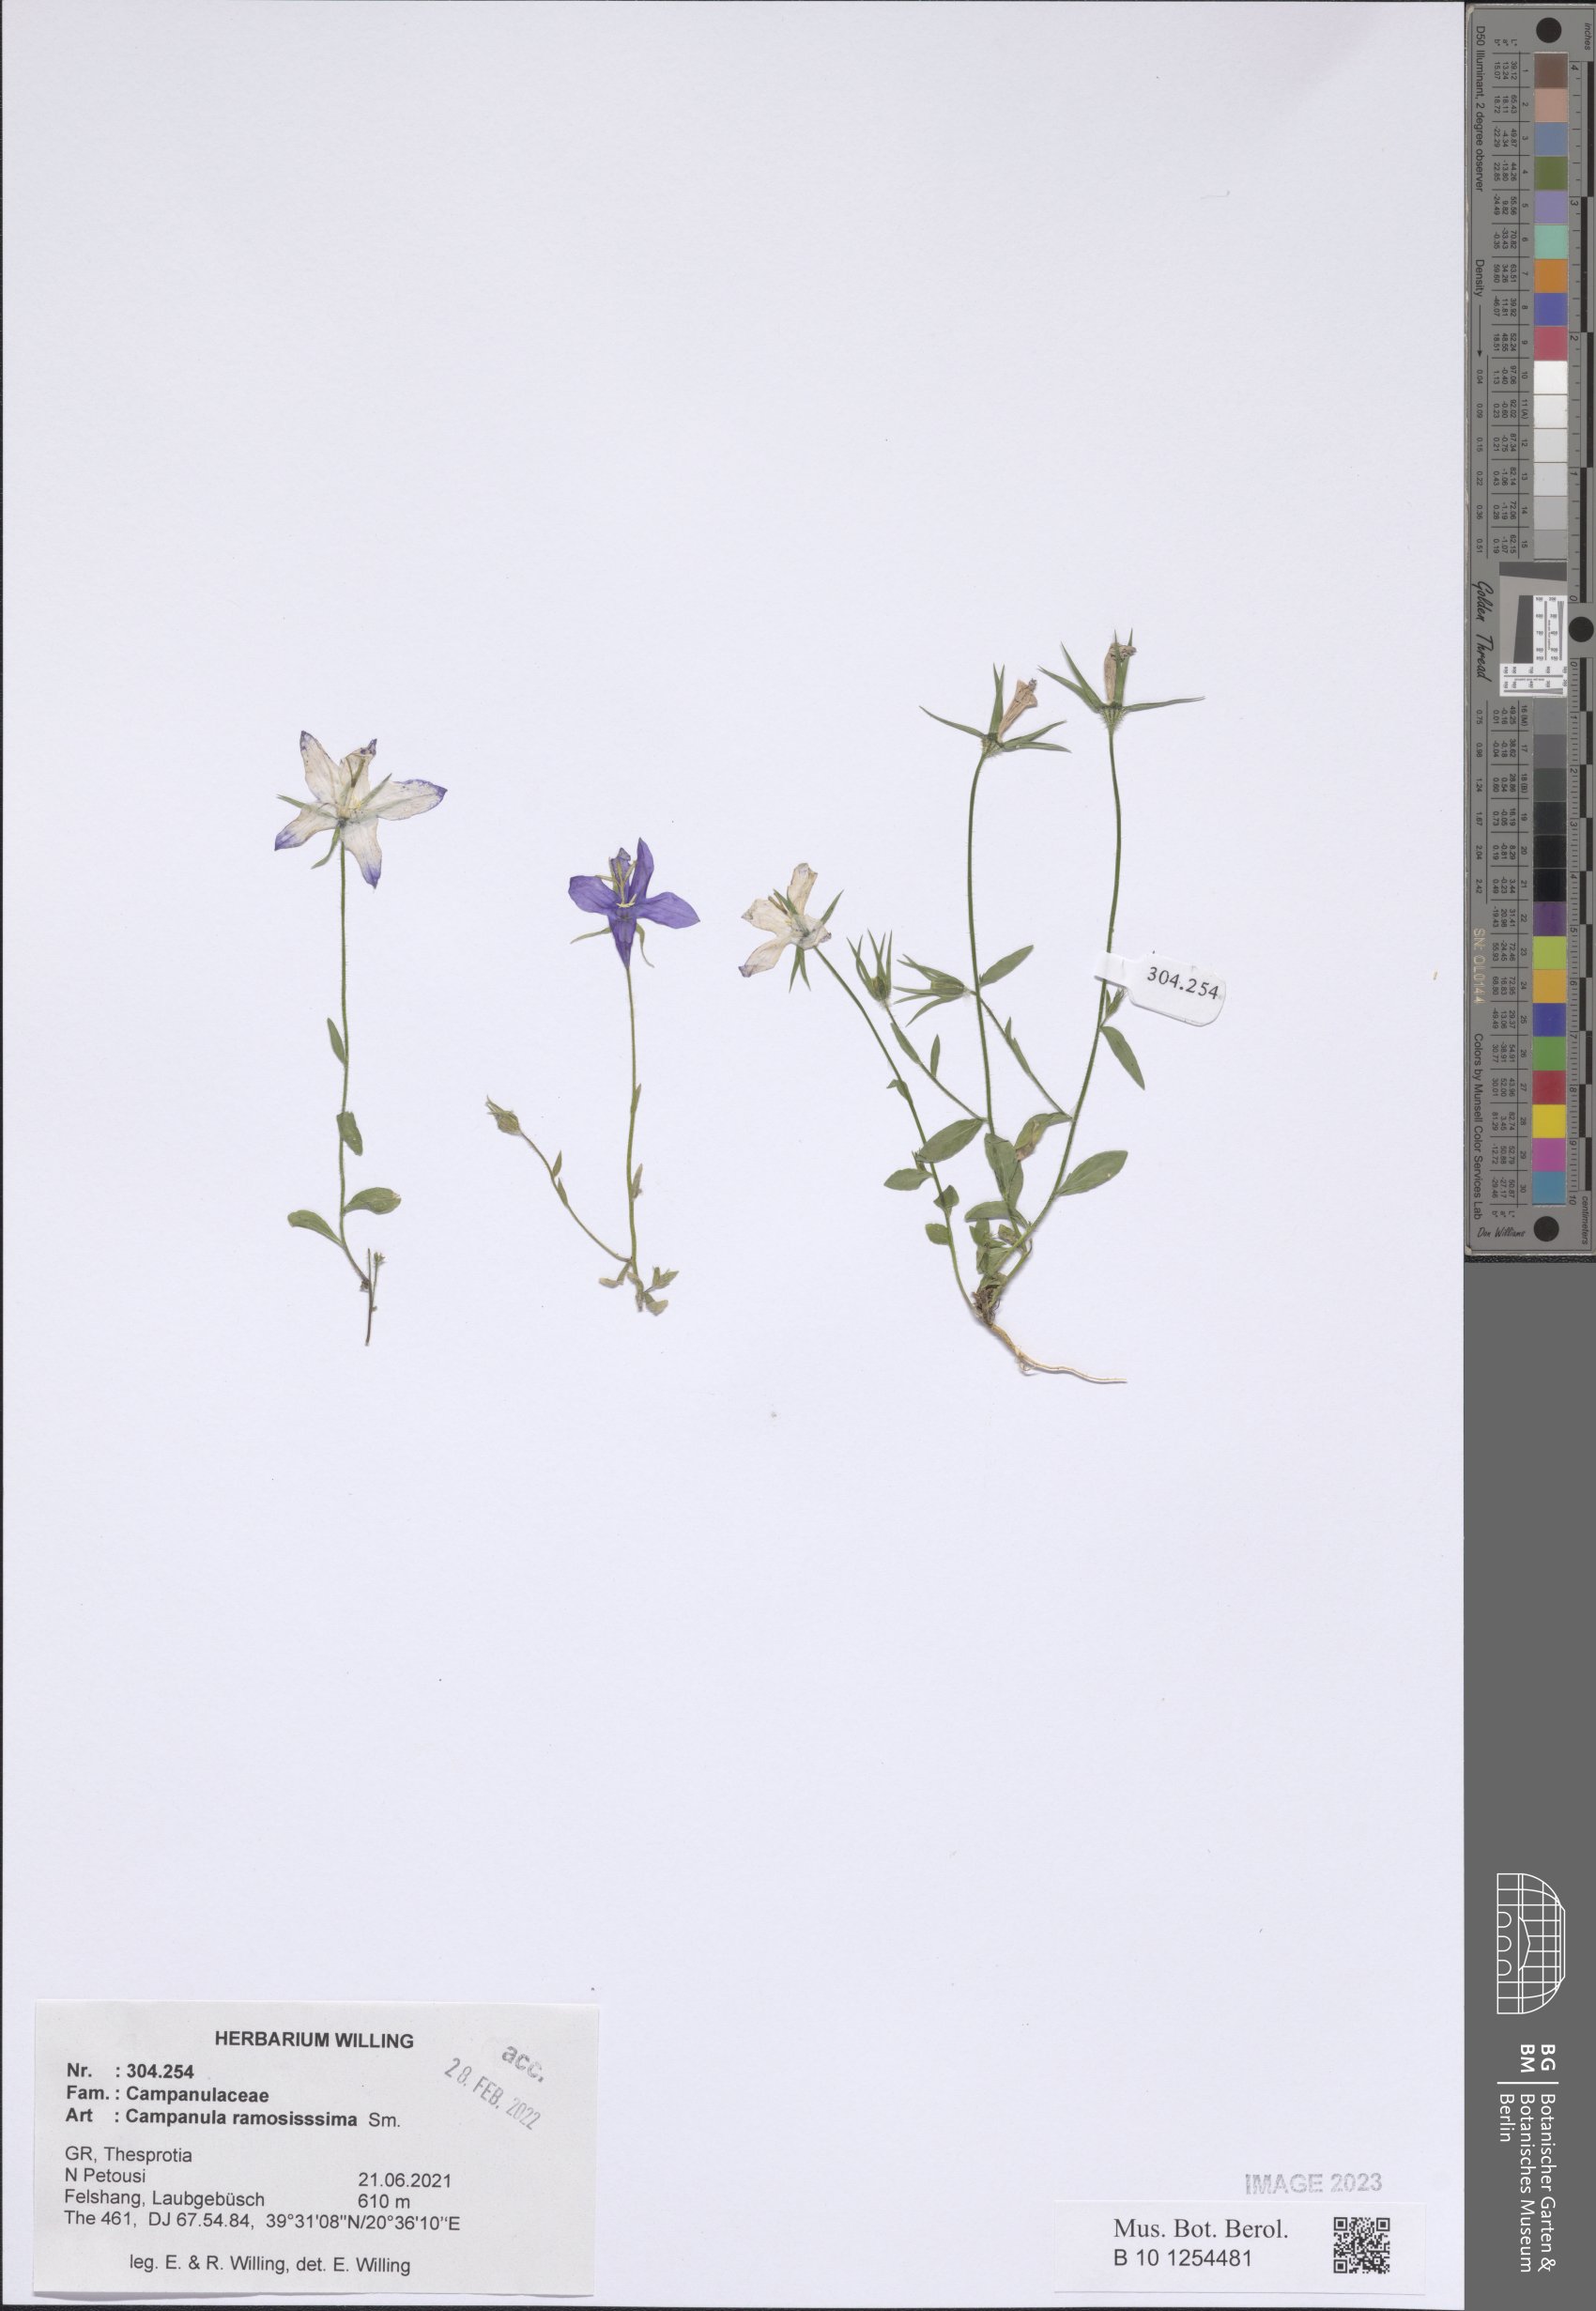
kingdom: Plantae
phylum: Tracheophyta
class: Magnoliopsida
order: Asterales
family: Campanulaceae
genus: Campanula
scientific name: Campanula ramosissima
